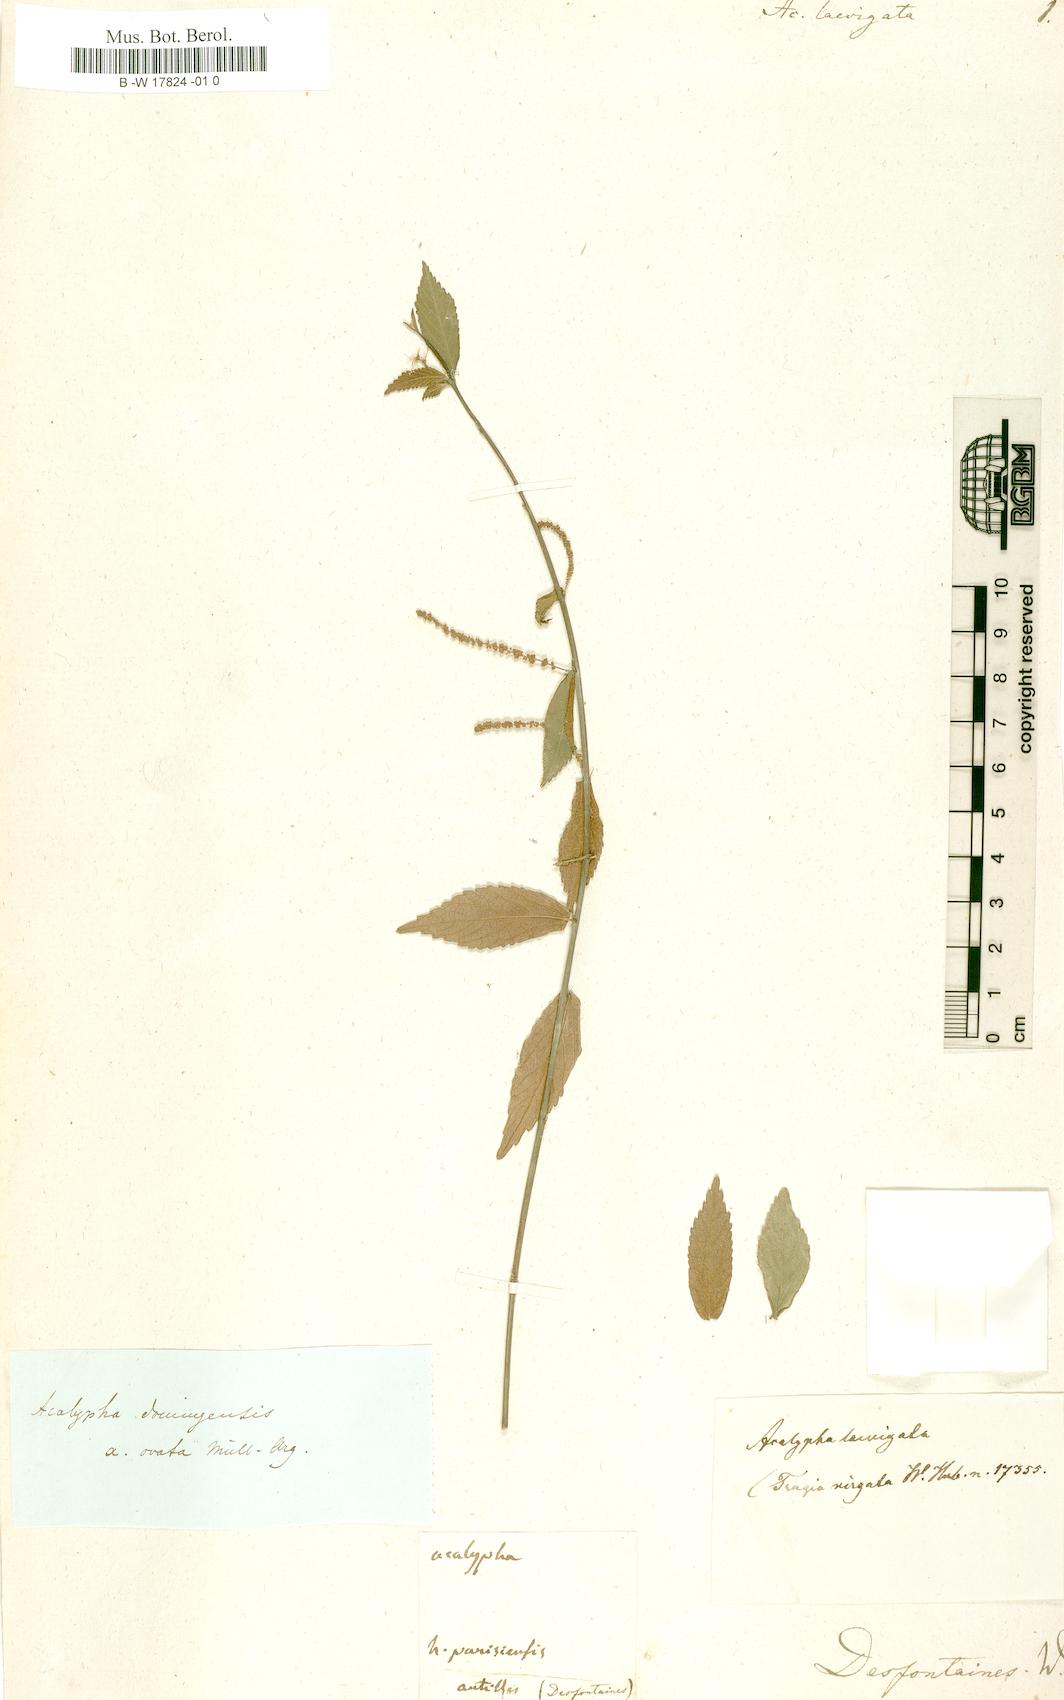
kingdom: Plantae
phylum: Tracheophyta
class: Magnoliopsida
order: Malpighiales
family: Euphorbiaceae
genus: Acalypha
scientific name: Acalypha angustifolia
